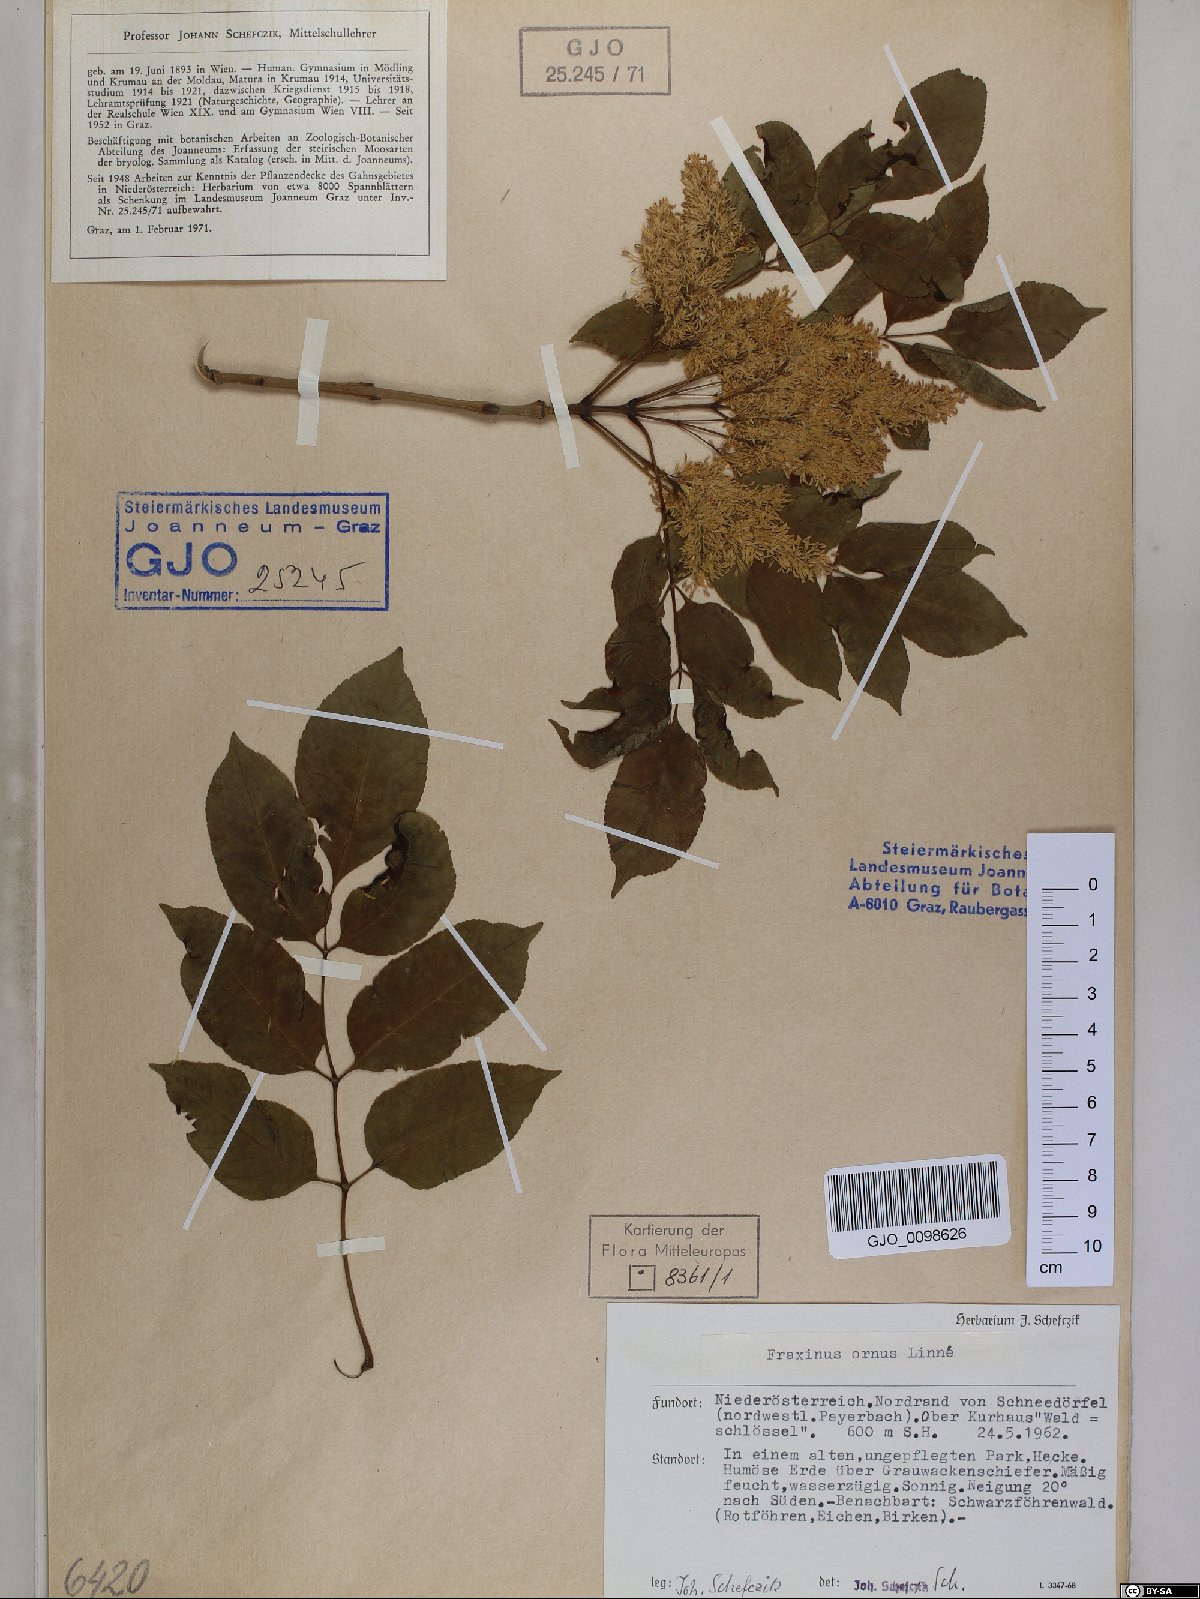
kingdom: Plantae
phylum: Tracheophyta
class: Magnoliopsida
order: Lamiales
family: Oleaceae
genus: Fraxinus
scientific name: Fraxinus ornus
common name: Manna ash
